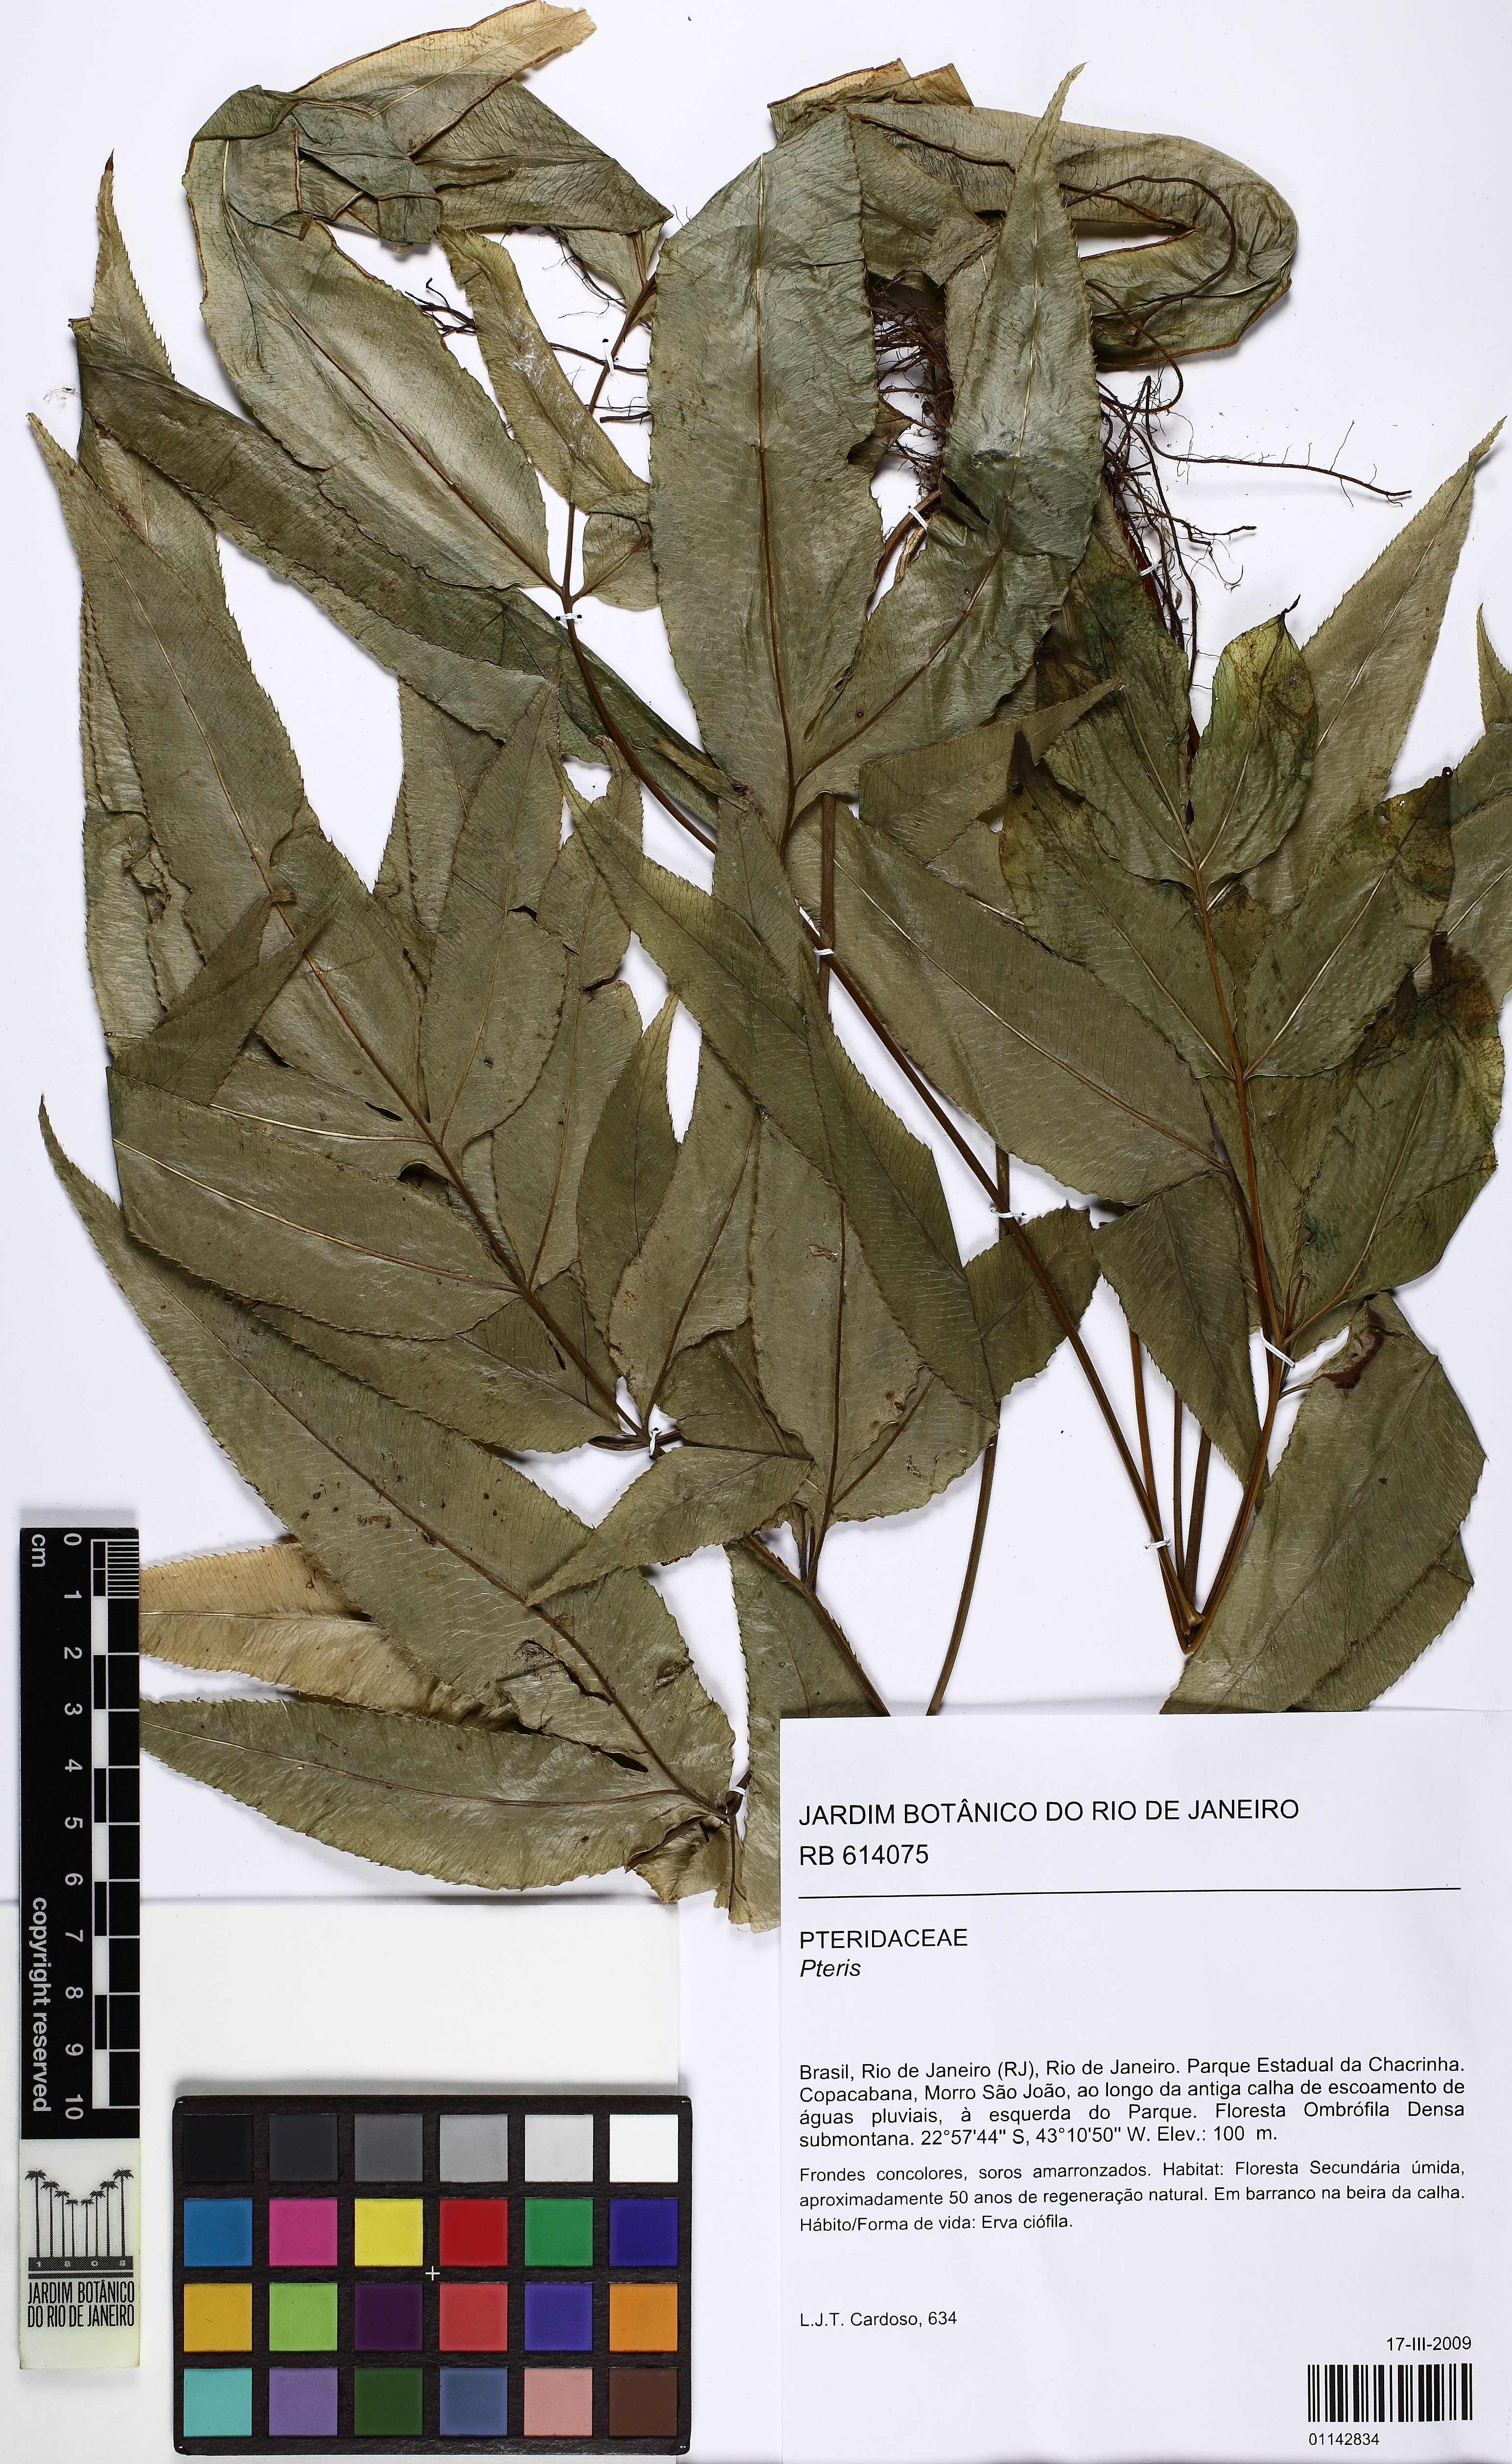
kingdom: Plantae
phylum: Tracheophyta
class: Polypodiopsida
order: Polypodiales
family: Pteridaceae
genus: Pteris
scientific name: Pteris
